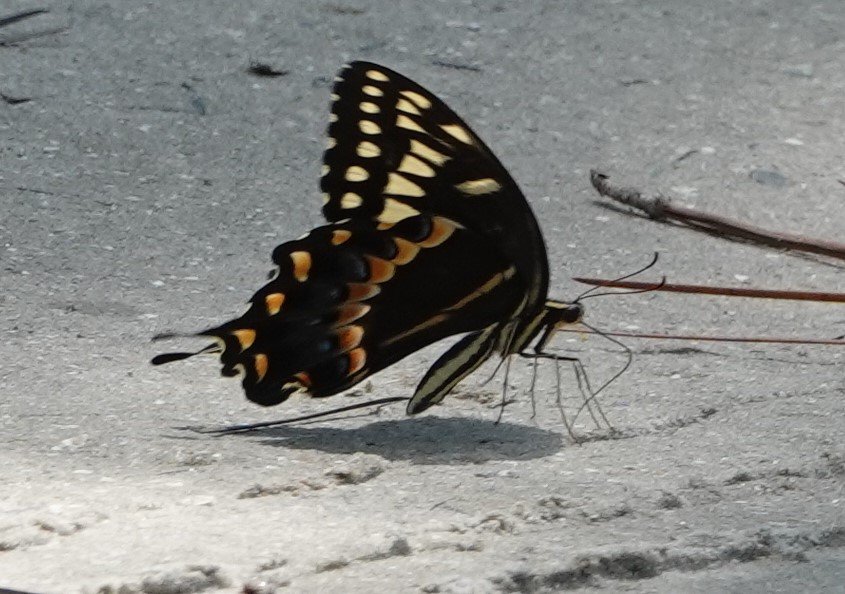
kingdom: Animalia
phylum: Arthropoda
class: Insecta
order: Lepidoptera
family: Papilionidae
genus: Pterourus
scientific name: Pterourus palamedes
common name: Palamedes Swallowtail
